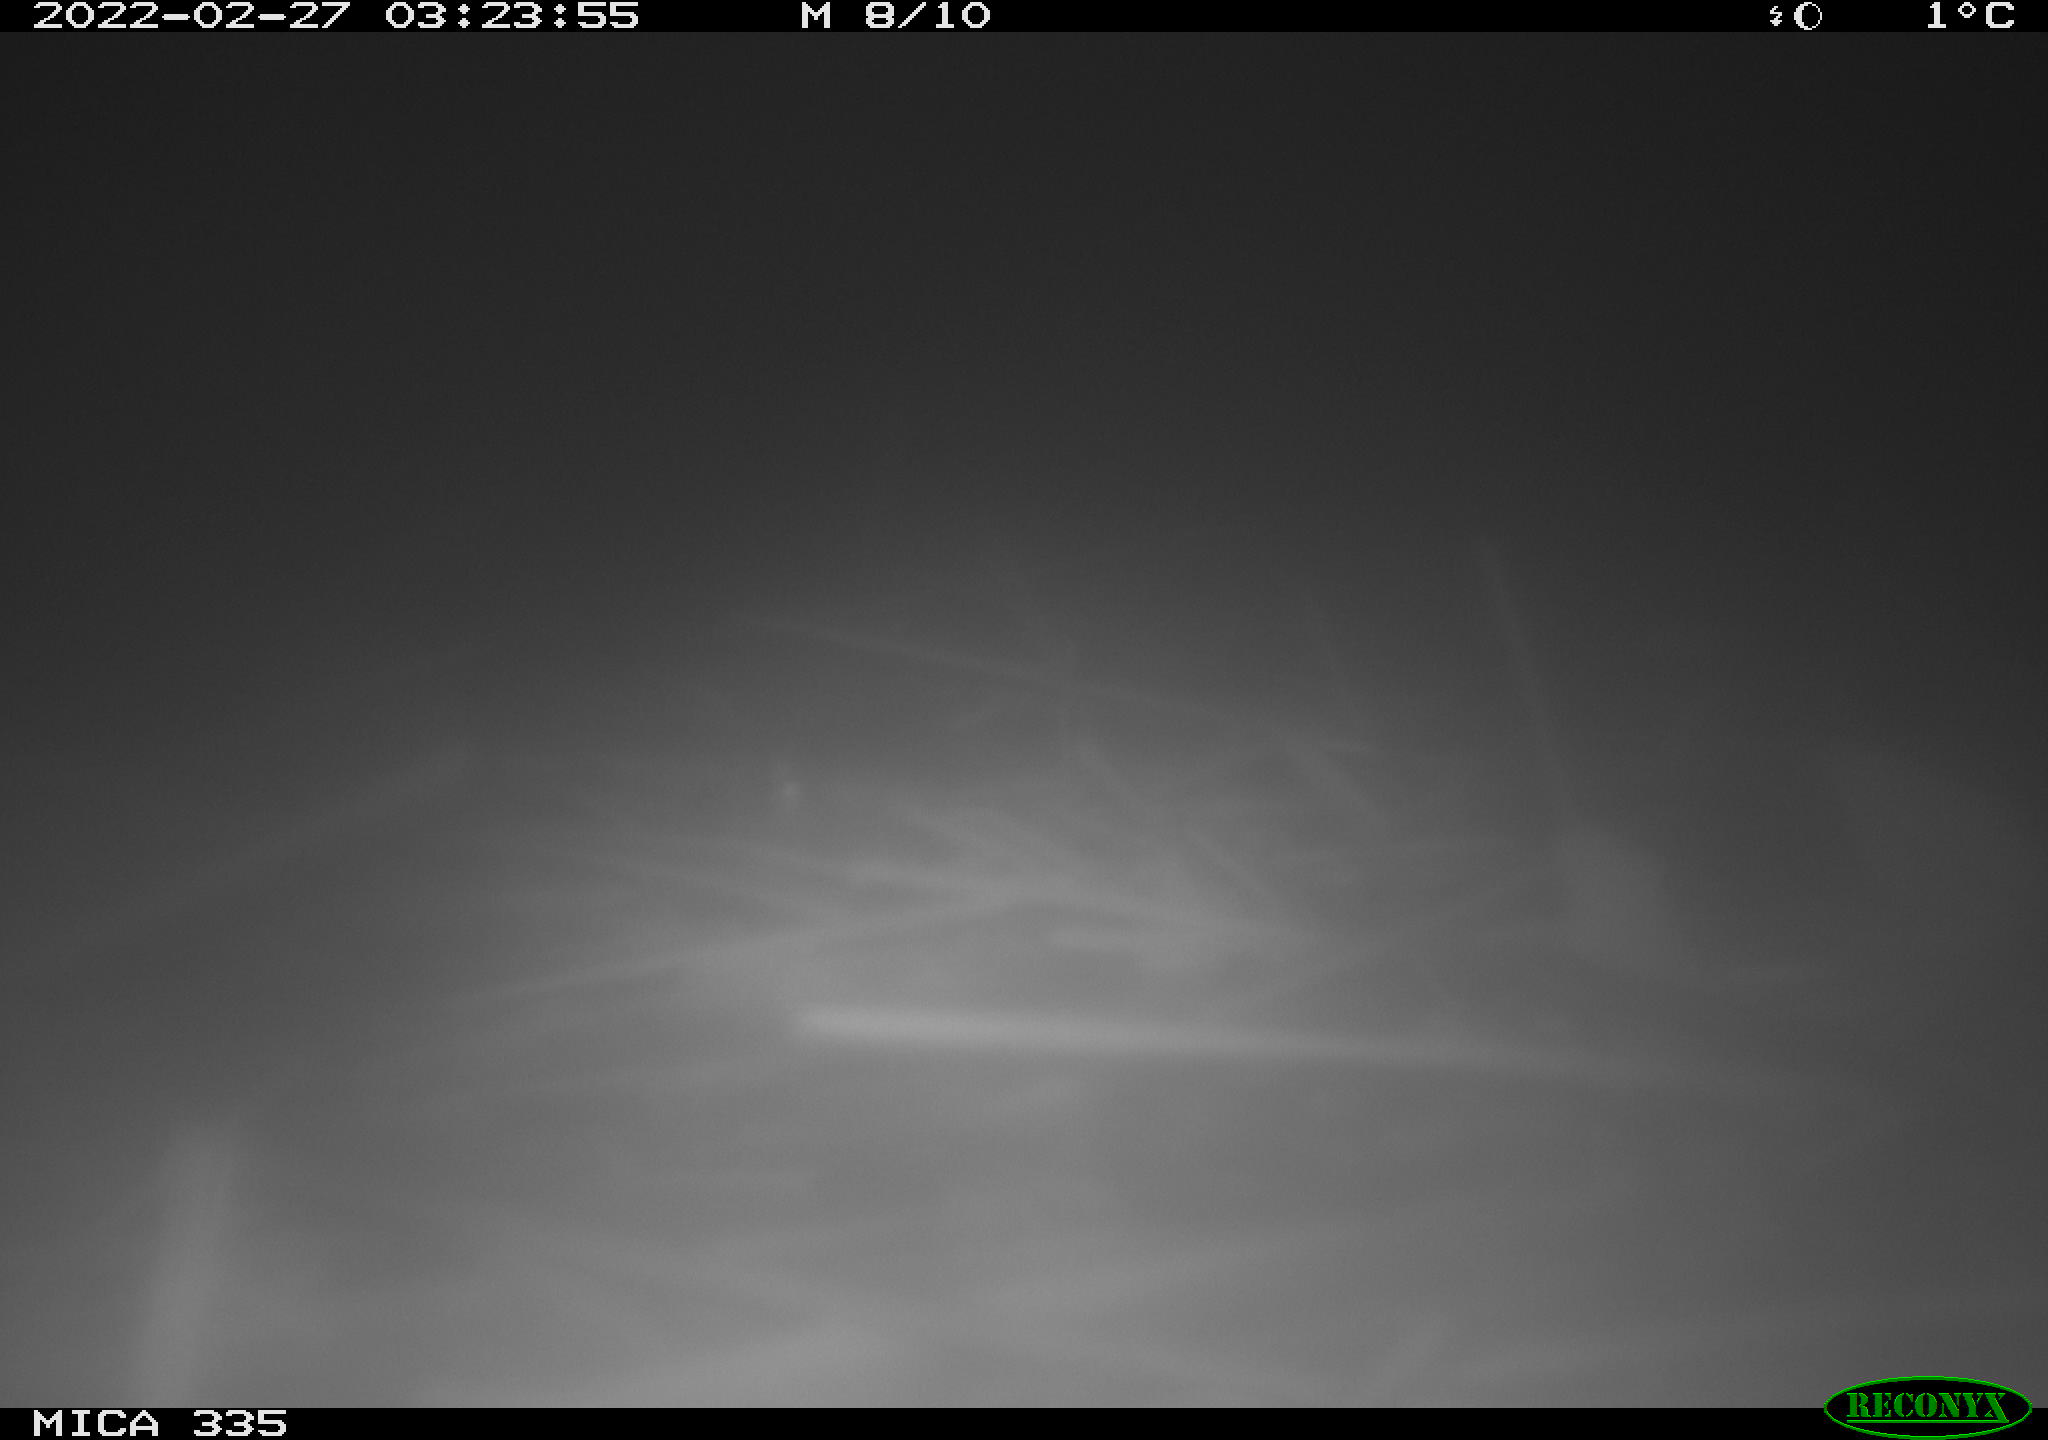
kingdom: Animalia
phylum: Chordata
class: Mammalia
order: Rodentia
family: Muridae
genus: Rattus
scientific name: Rattus norvegicus
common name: Brown rat
